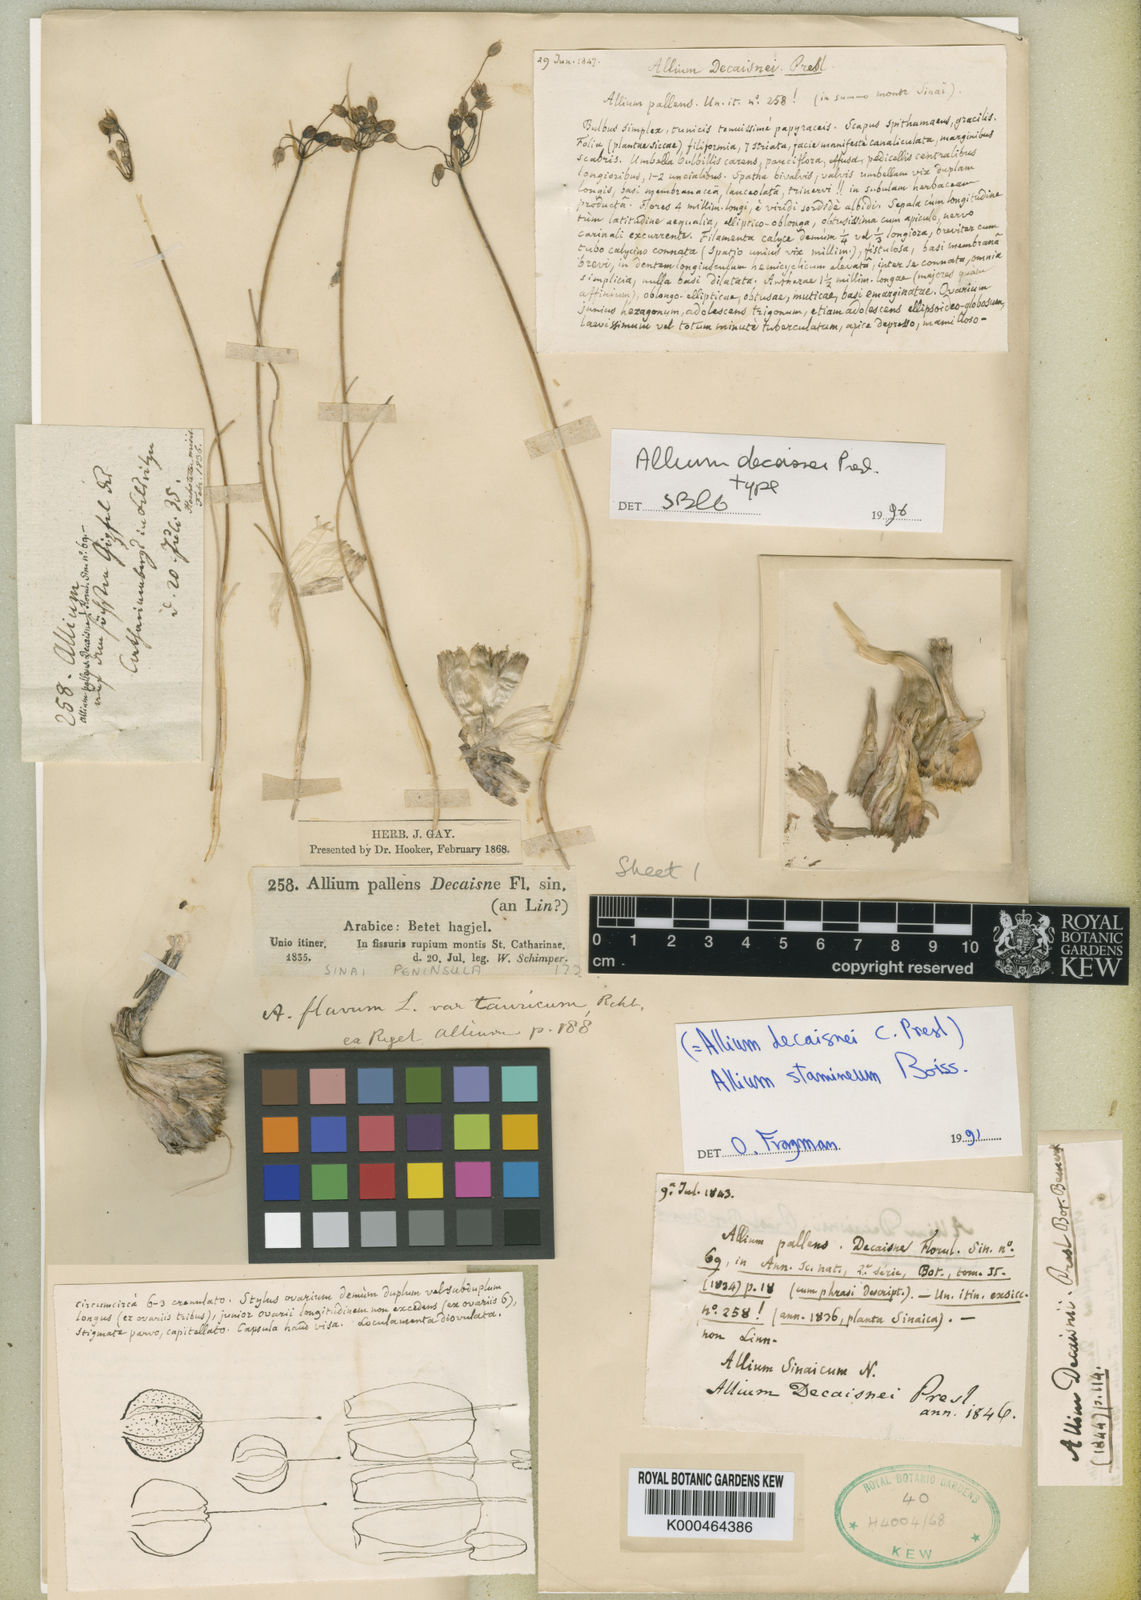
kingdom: Plantae
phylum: Tracheophyta
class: Liliopsida
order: Asparagales
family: Amaryllidaceae
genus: Allium
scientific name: Allium stamineum
